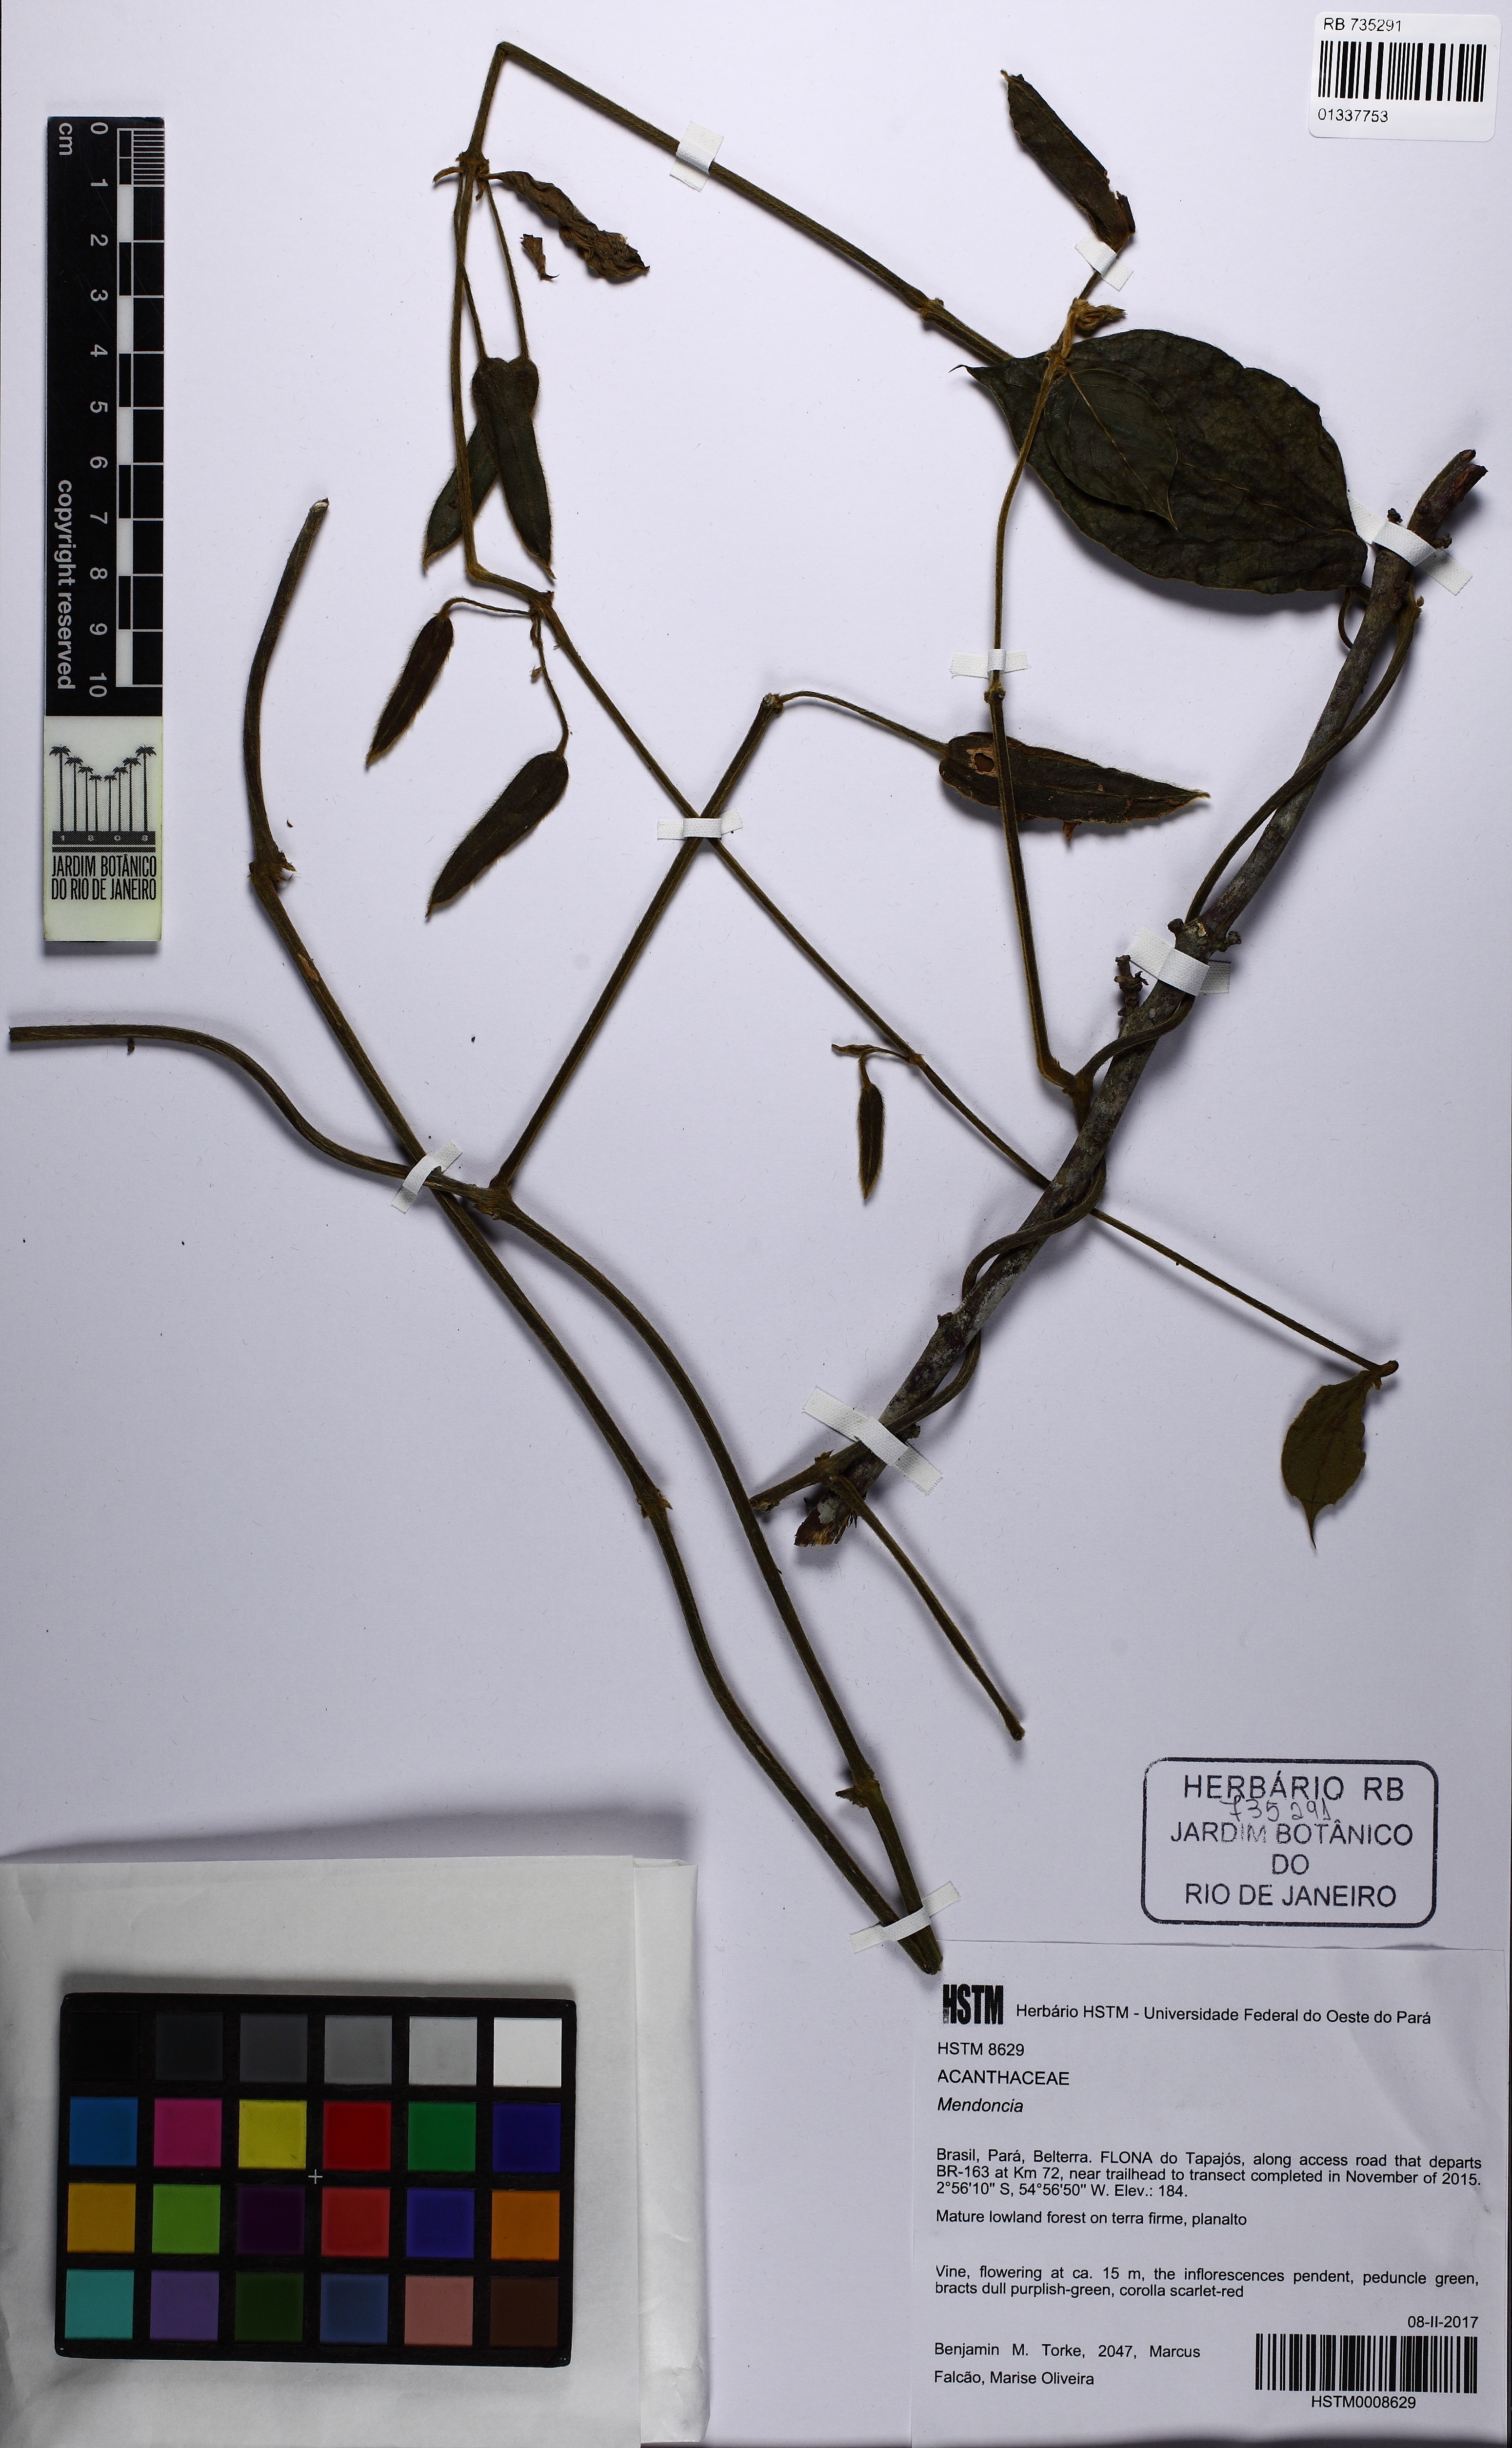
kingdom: Plantae
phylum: Tracheophyta
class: Magnoliopsida
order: Lamiales
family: Acanthaceae
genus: Mendoncia
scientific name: Mendoncia hoffmannseggiana
